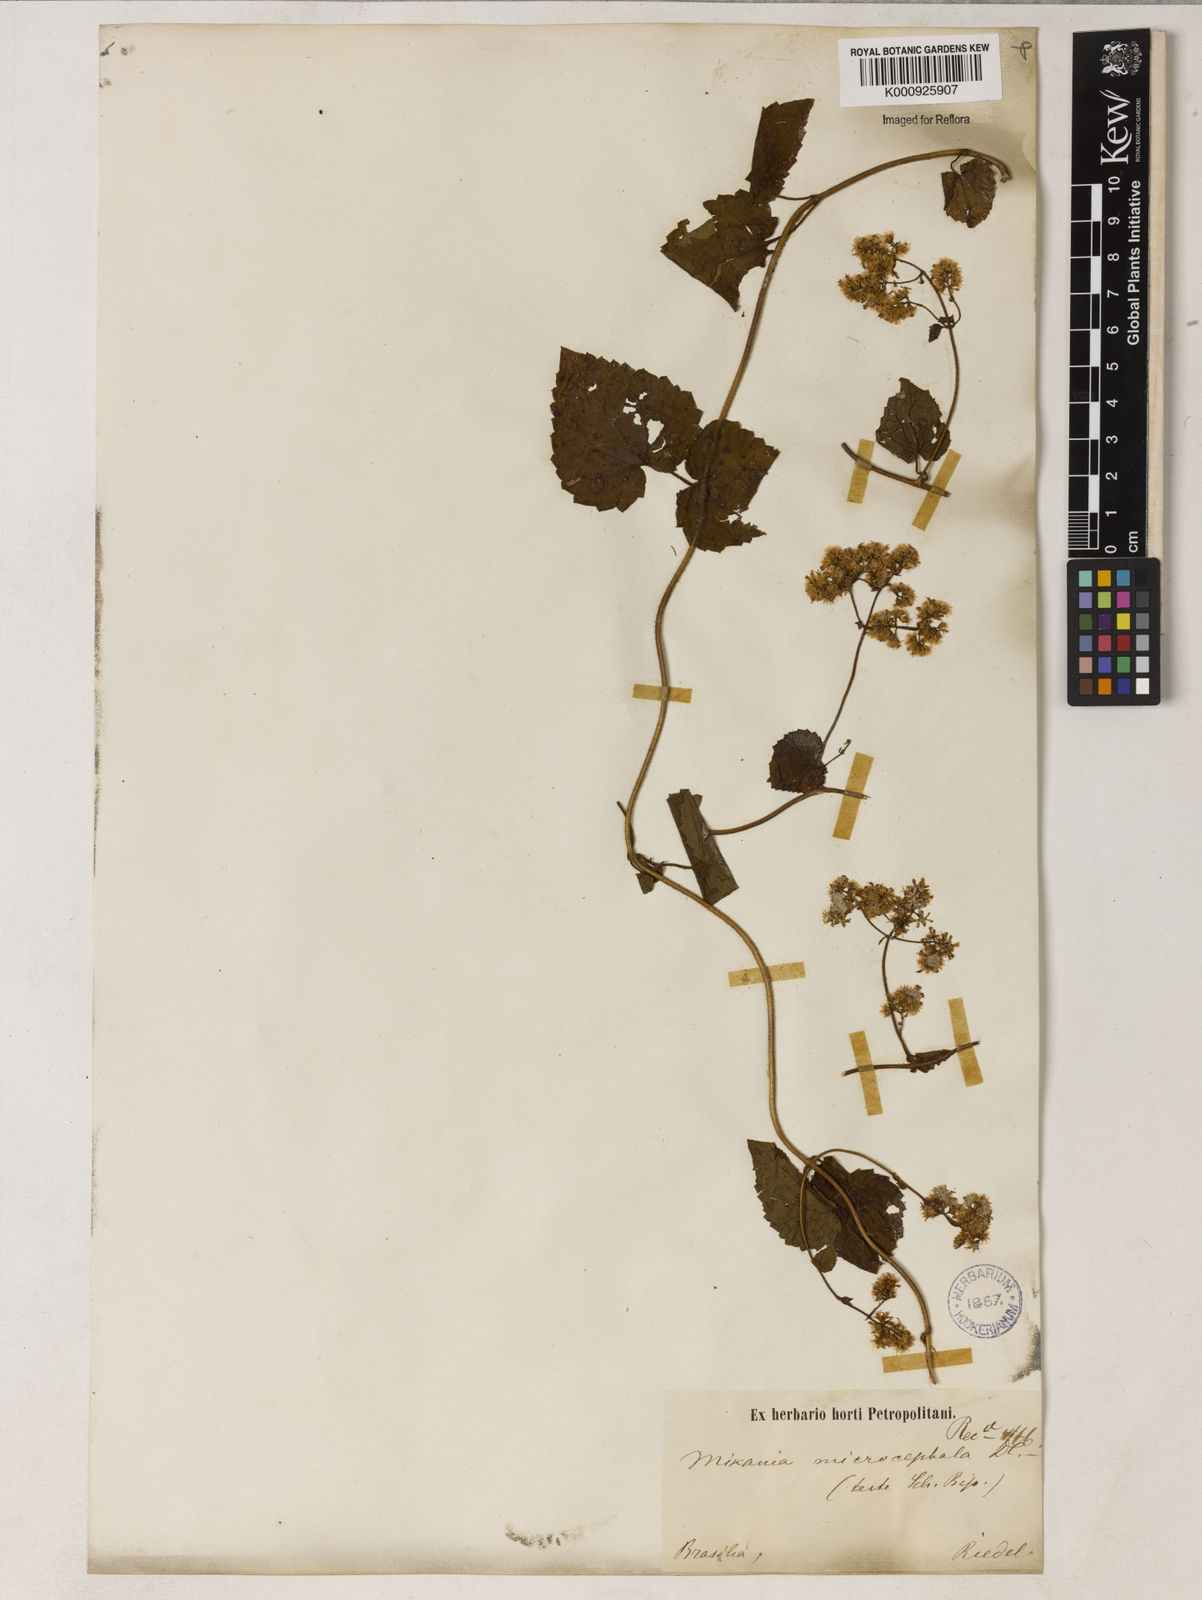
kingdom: Plantae
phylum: Tracheophyta
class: Magnoliopsida
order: Asterales
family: Asteraceae
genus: Mikania
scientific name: Mikania microcephala
